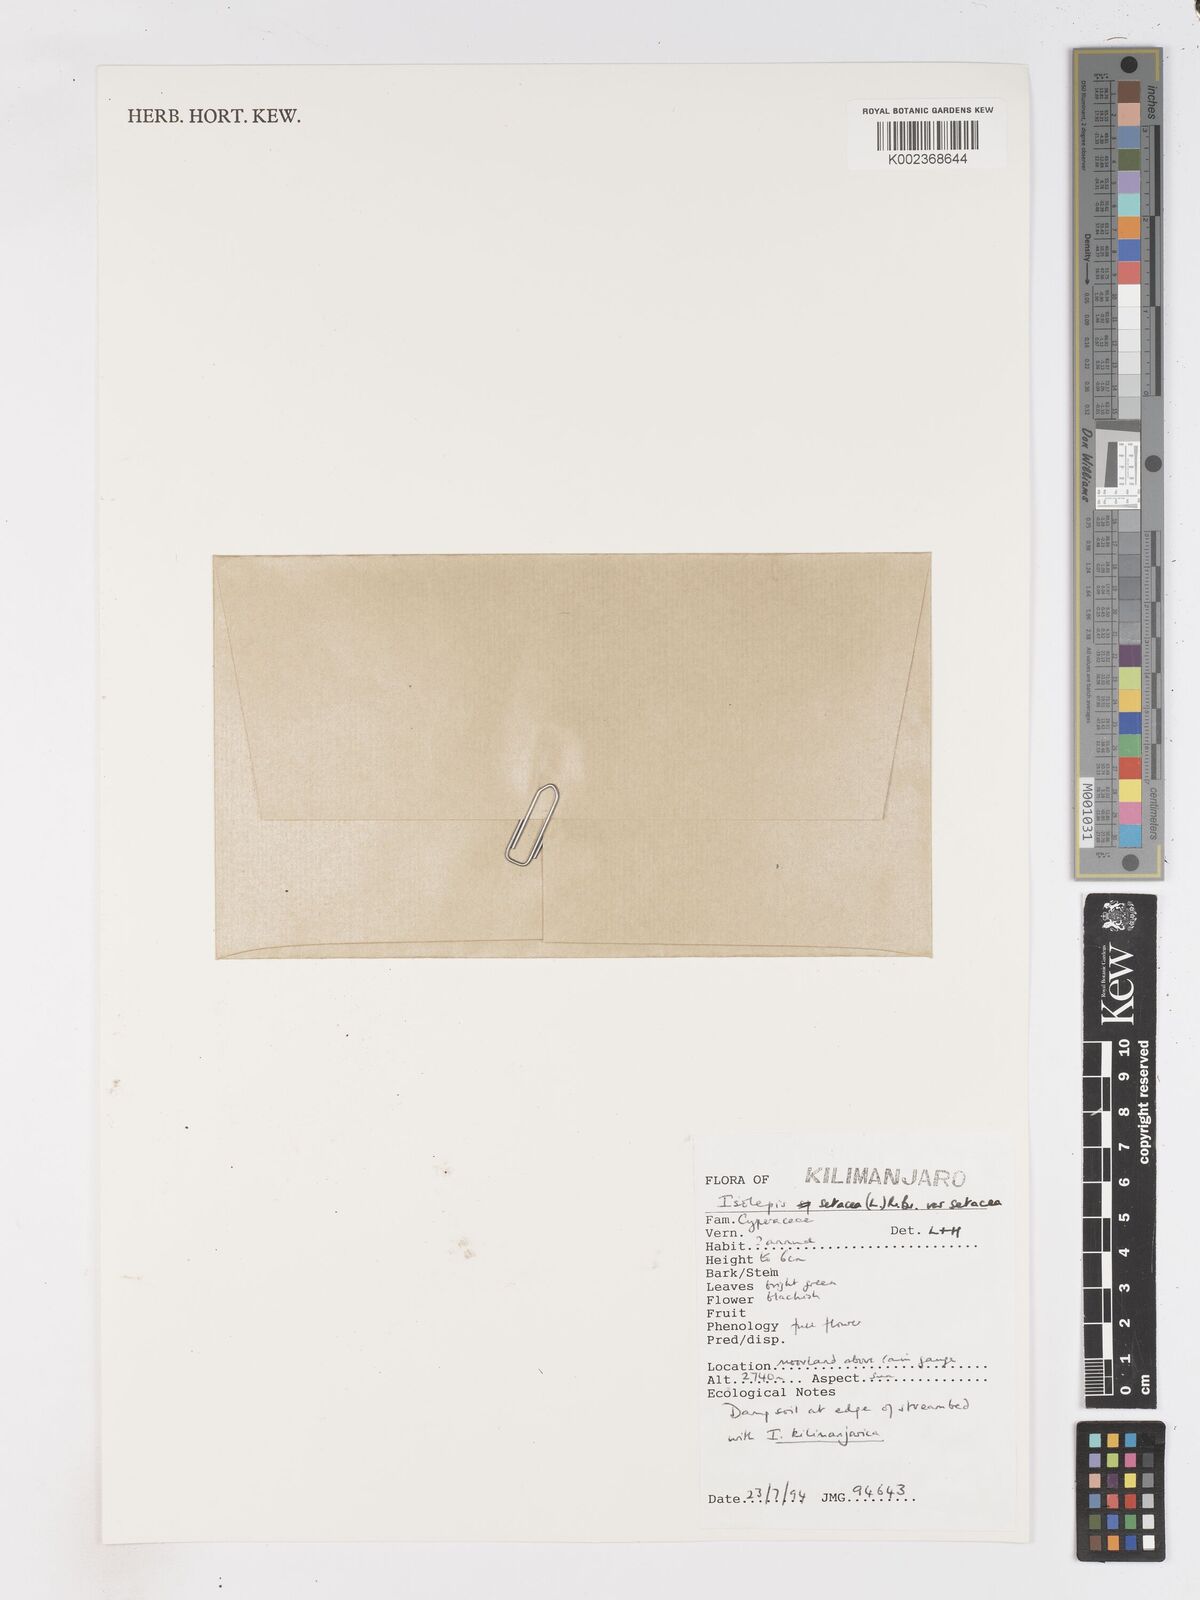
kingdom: Plantae
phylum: Tracheophyta
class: Liliopsida
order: Poales
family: Cyperaceae
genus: Isolepis
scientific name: Isolepis setacea
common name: Bristle club-rush
